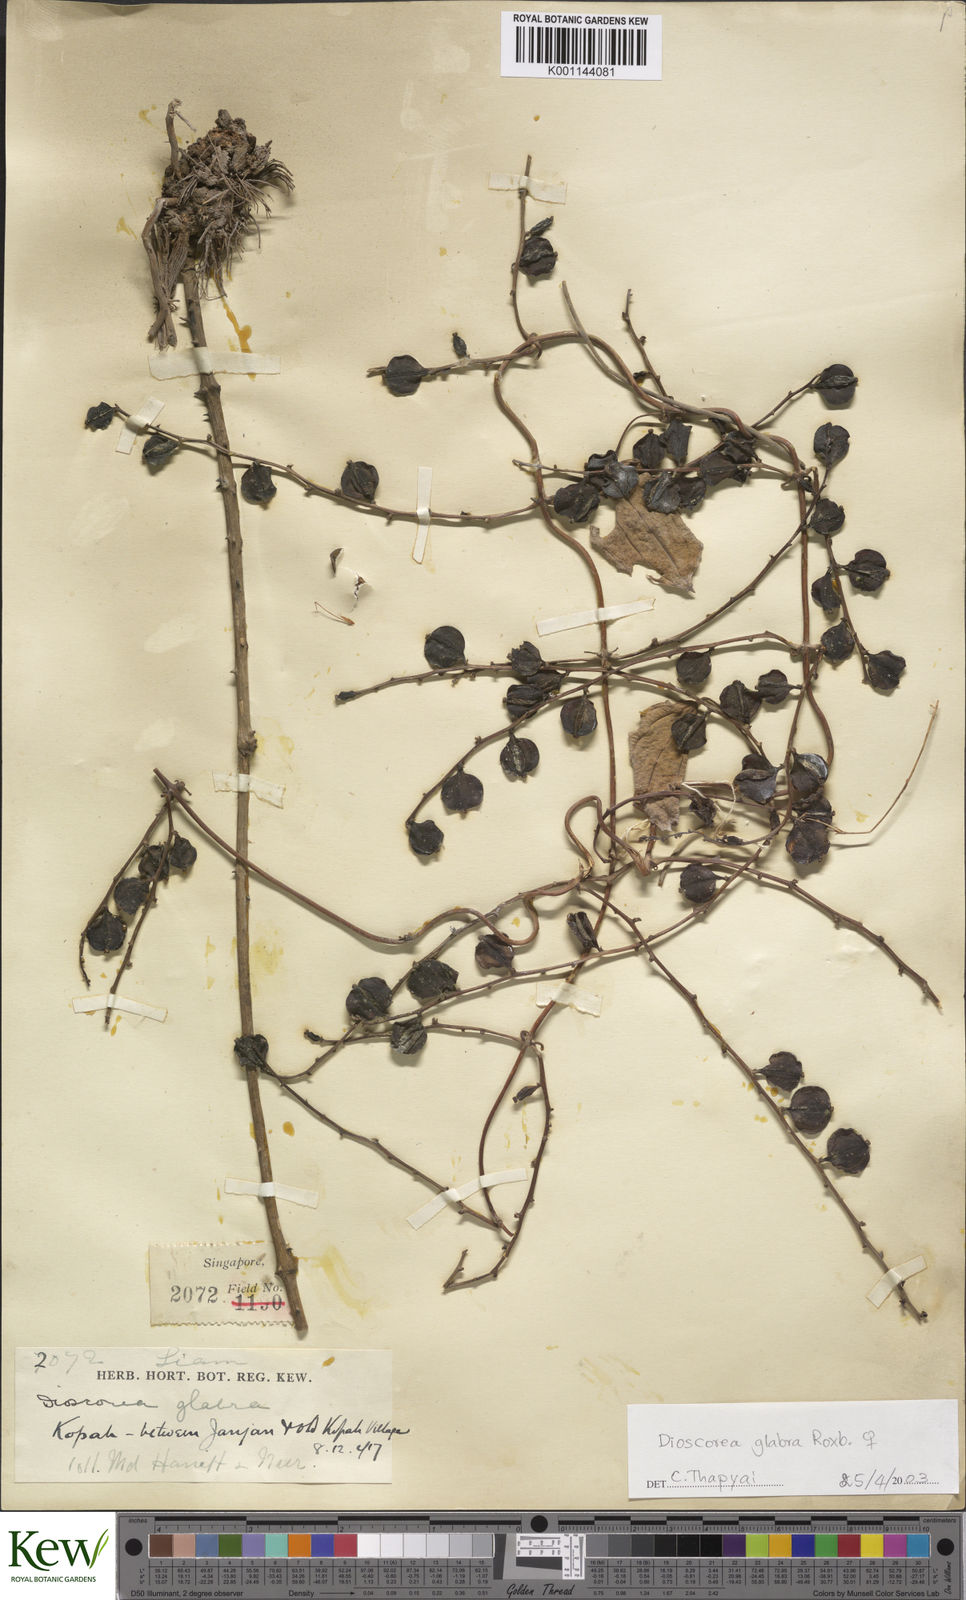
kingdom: Plantae
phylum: Tracheophyta
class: Liliopsida
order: Dioscoreales
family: Dioscoreaceae
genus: Dioscorea
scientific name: Dioscorea glabra
